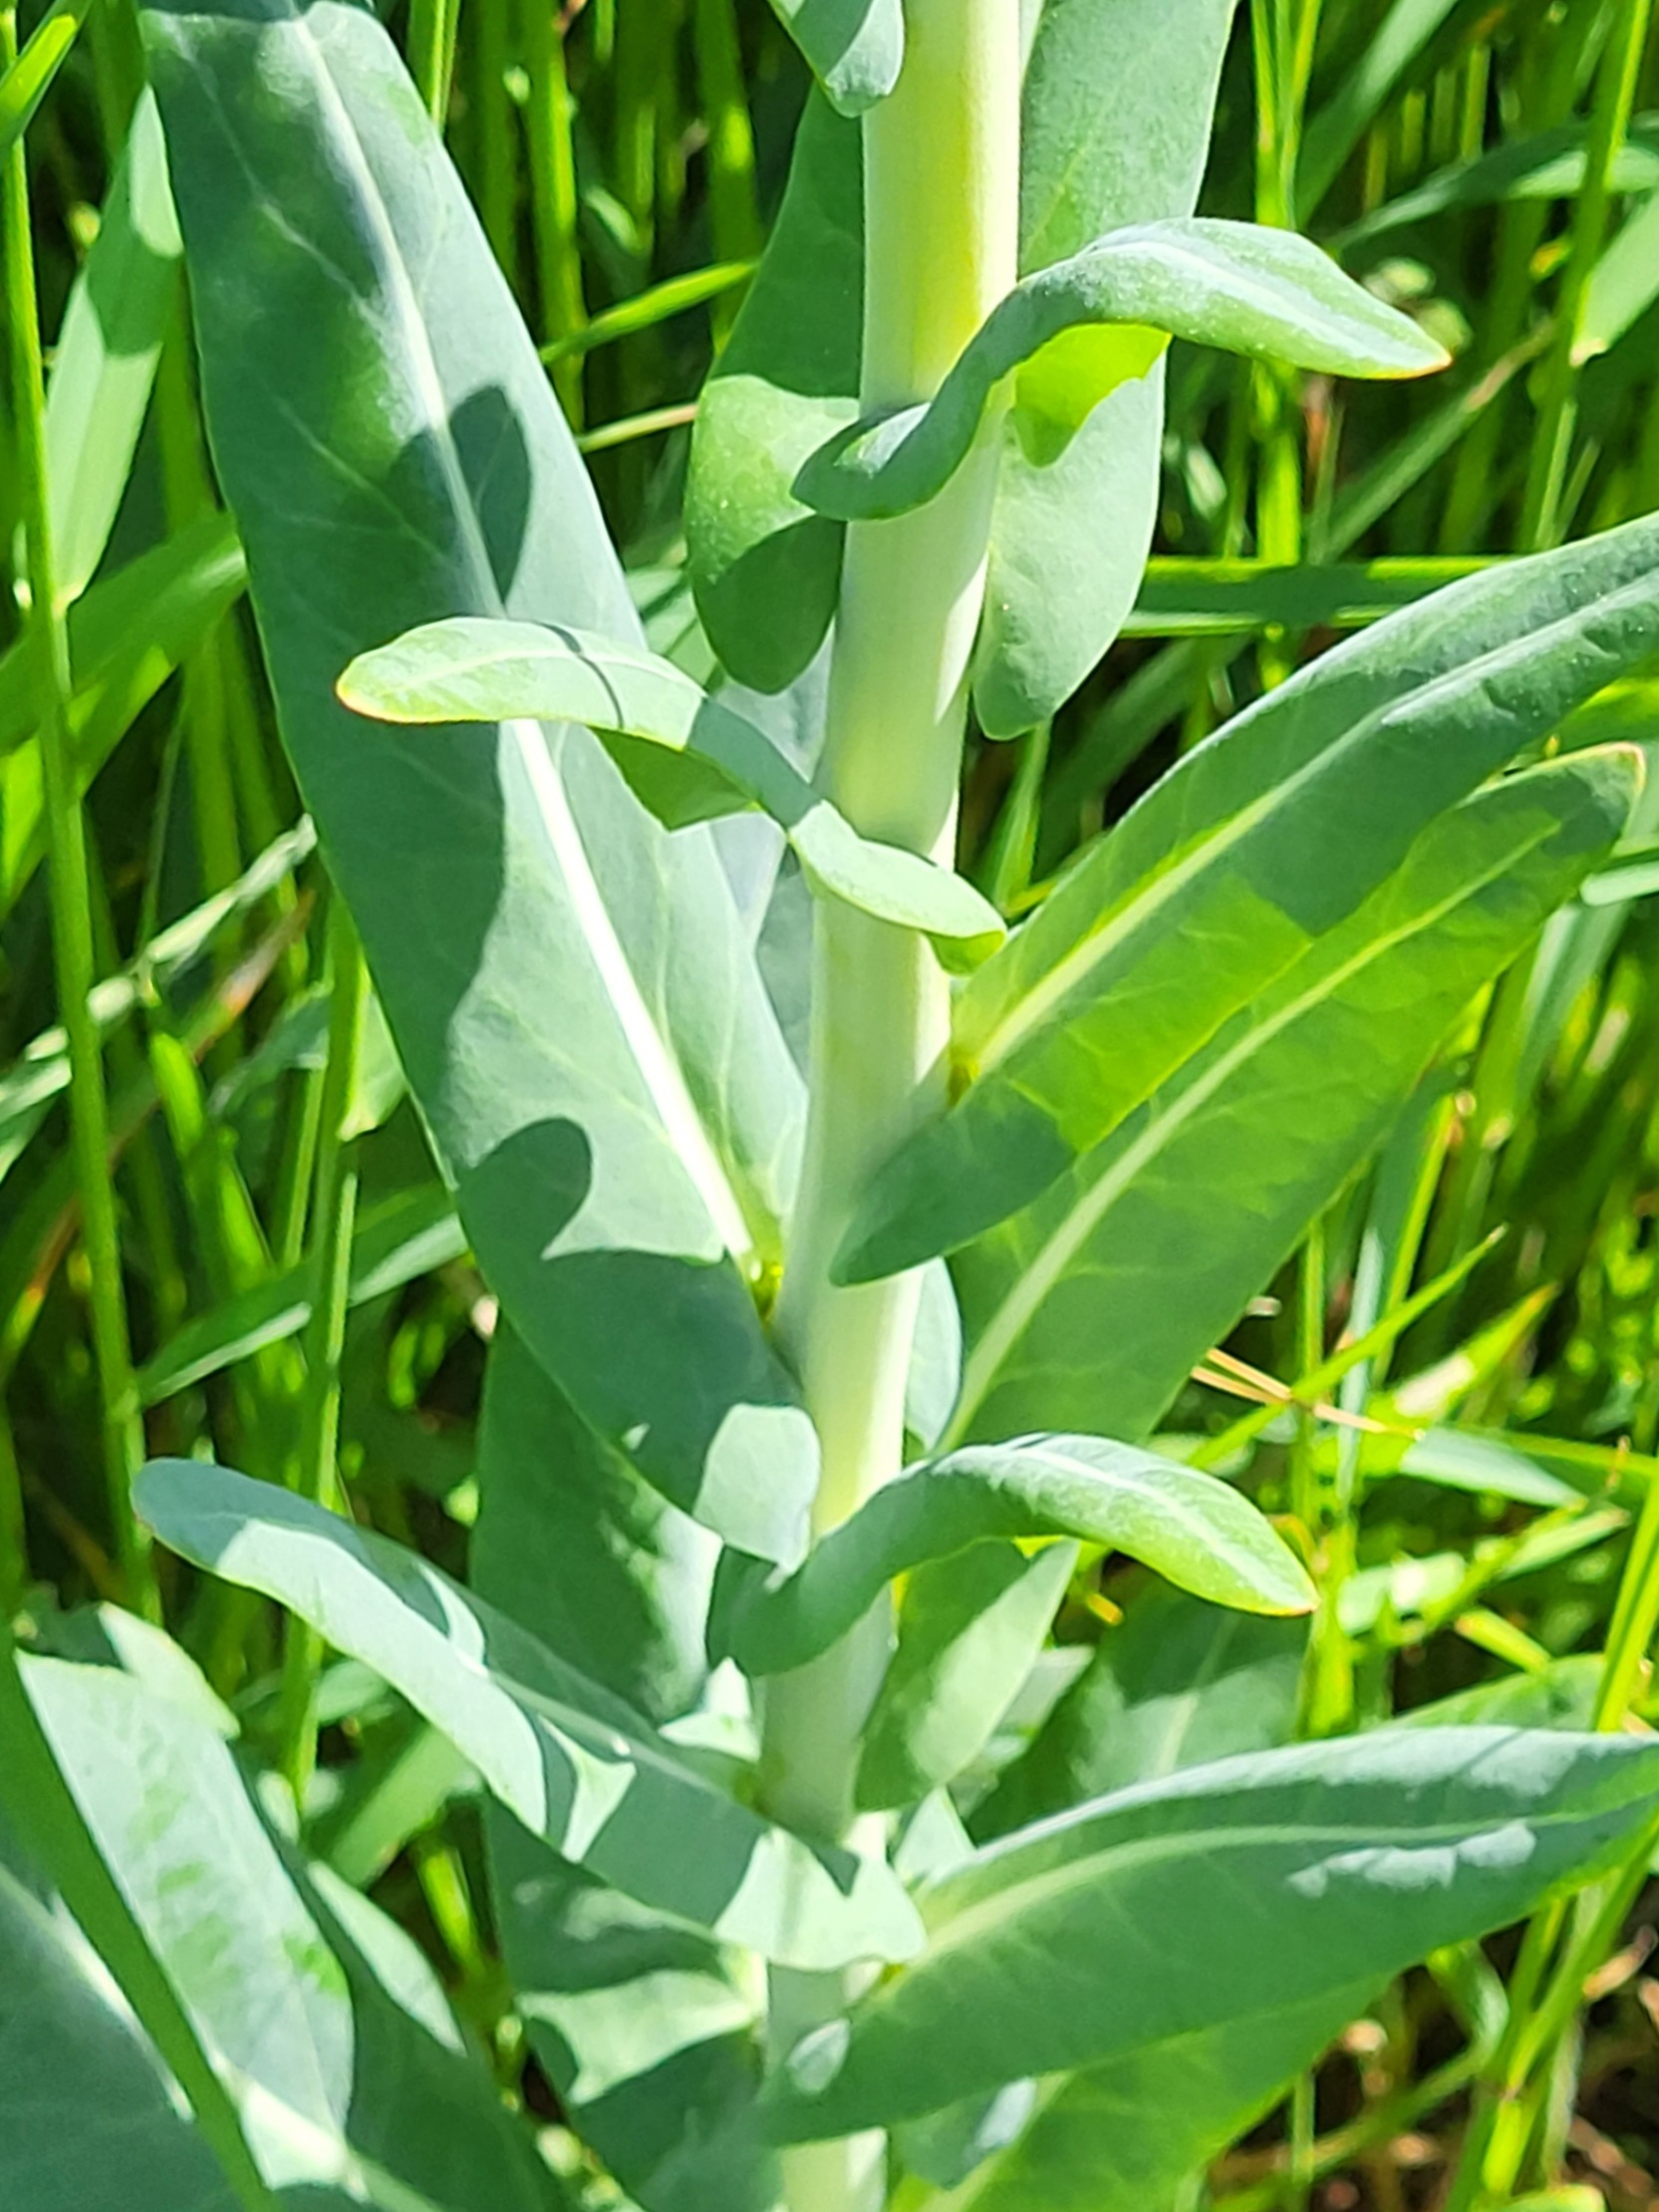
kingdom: Plantae
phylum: Tracheophyta
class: Magnoliopsida
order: Brassicales
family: Brassicaceae
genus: Isatis
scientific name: Isatis tinctoria
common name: Farve-vajd
